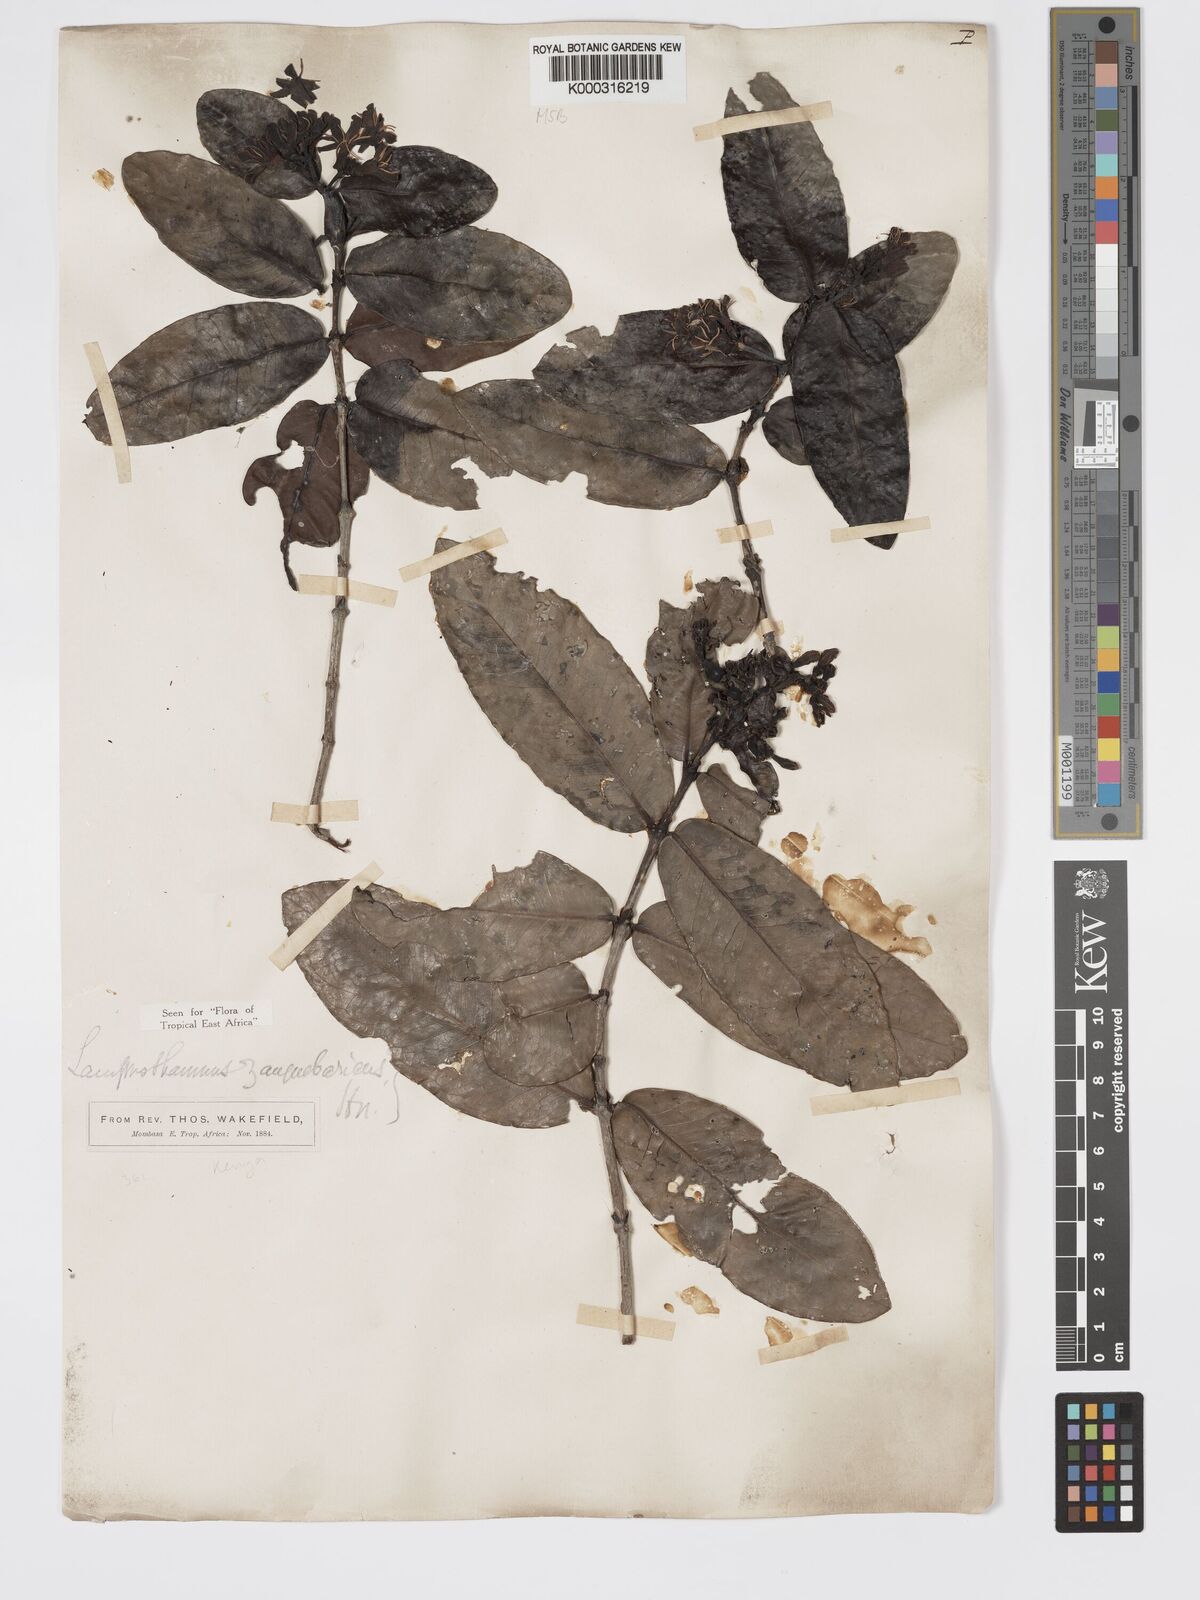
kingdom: Plantae
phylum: Tracheophyta
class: Magnoliopsida
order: Gentianales
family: Rubiaceae
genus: Lamprothamnus
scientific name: Lamprothamnus zanguebaricus
